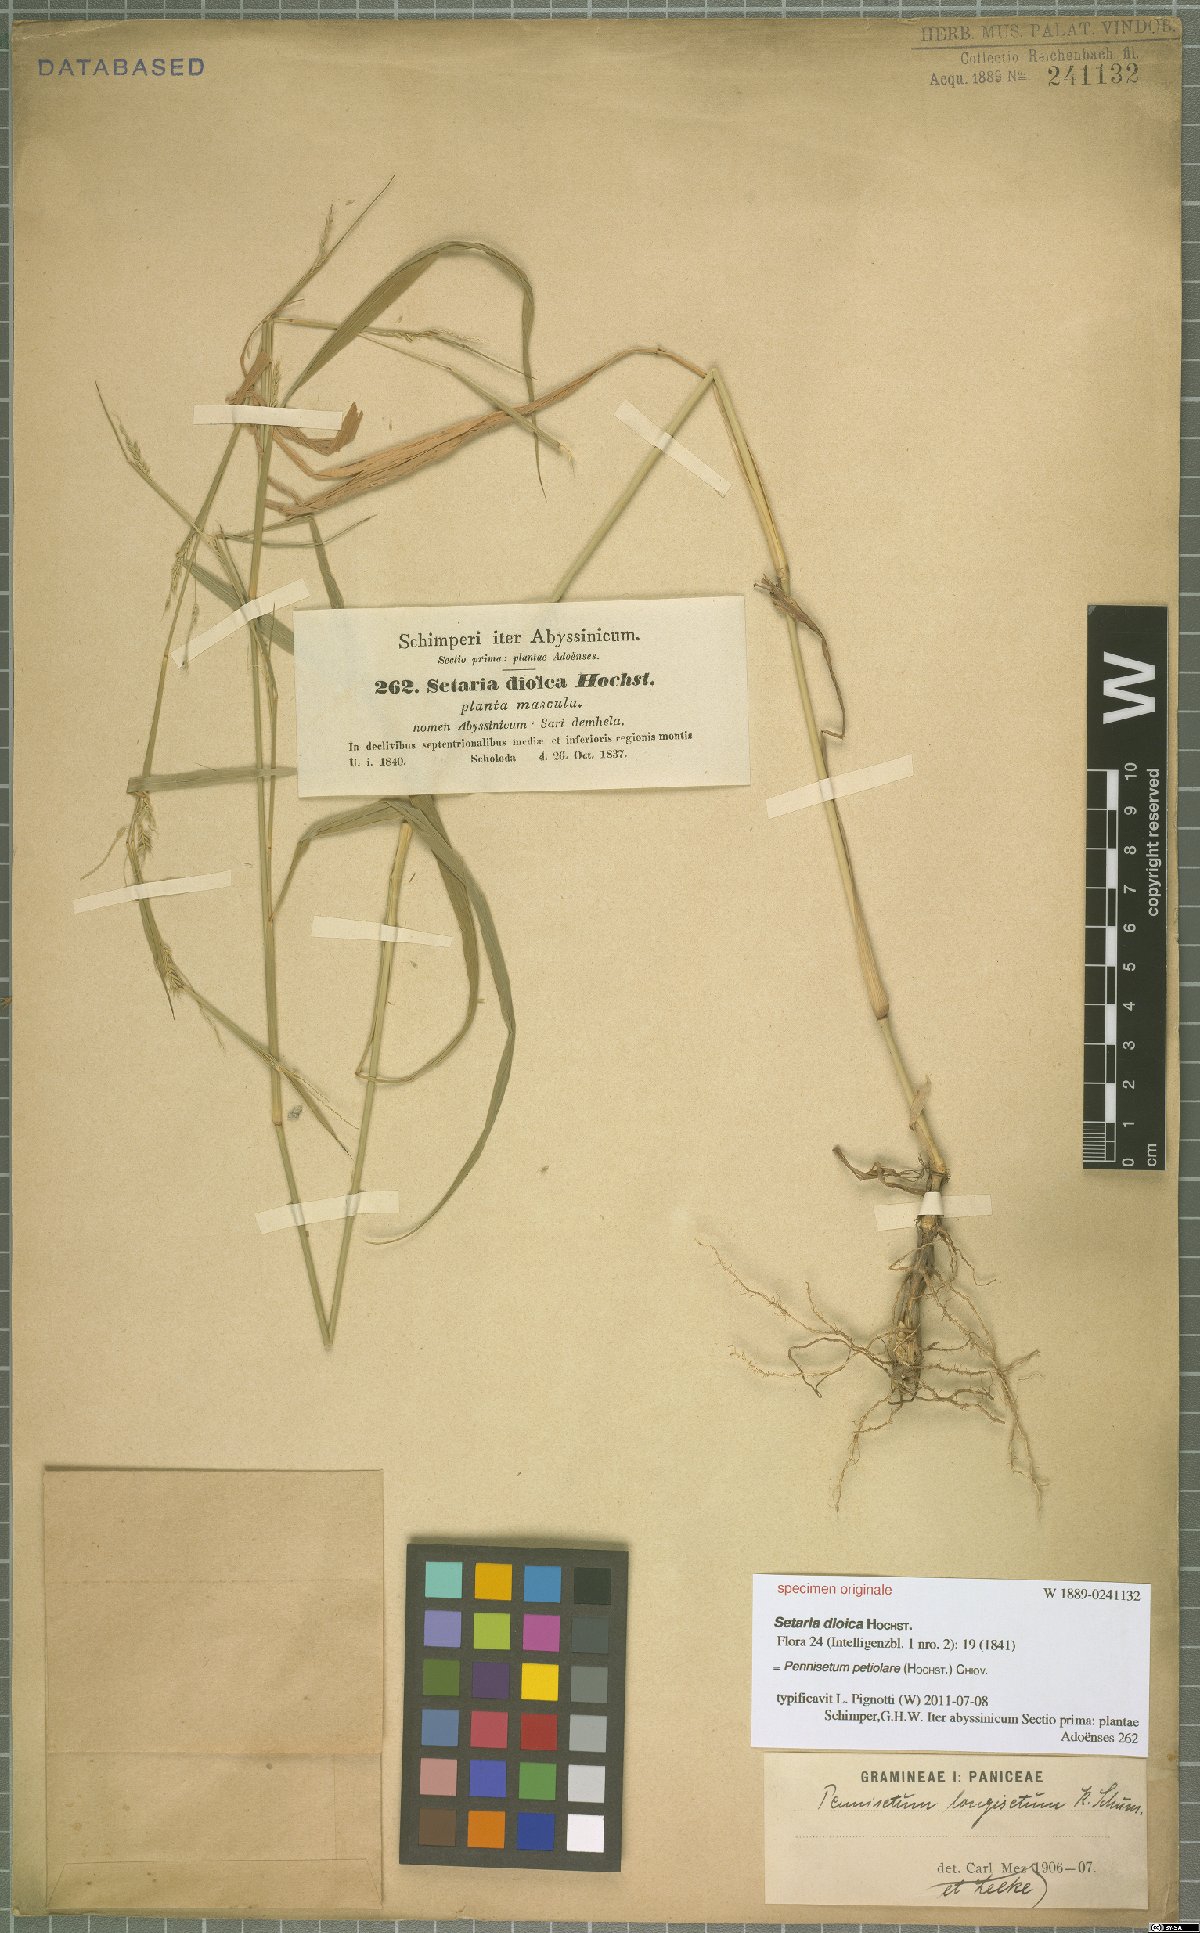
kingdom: Plantae
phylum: Tracheophyta
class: Liliopsida
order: Poales
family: Poaceae
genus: Cenchrus
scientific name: Cenchrus petiolaris
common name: Grass
